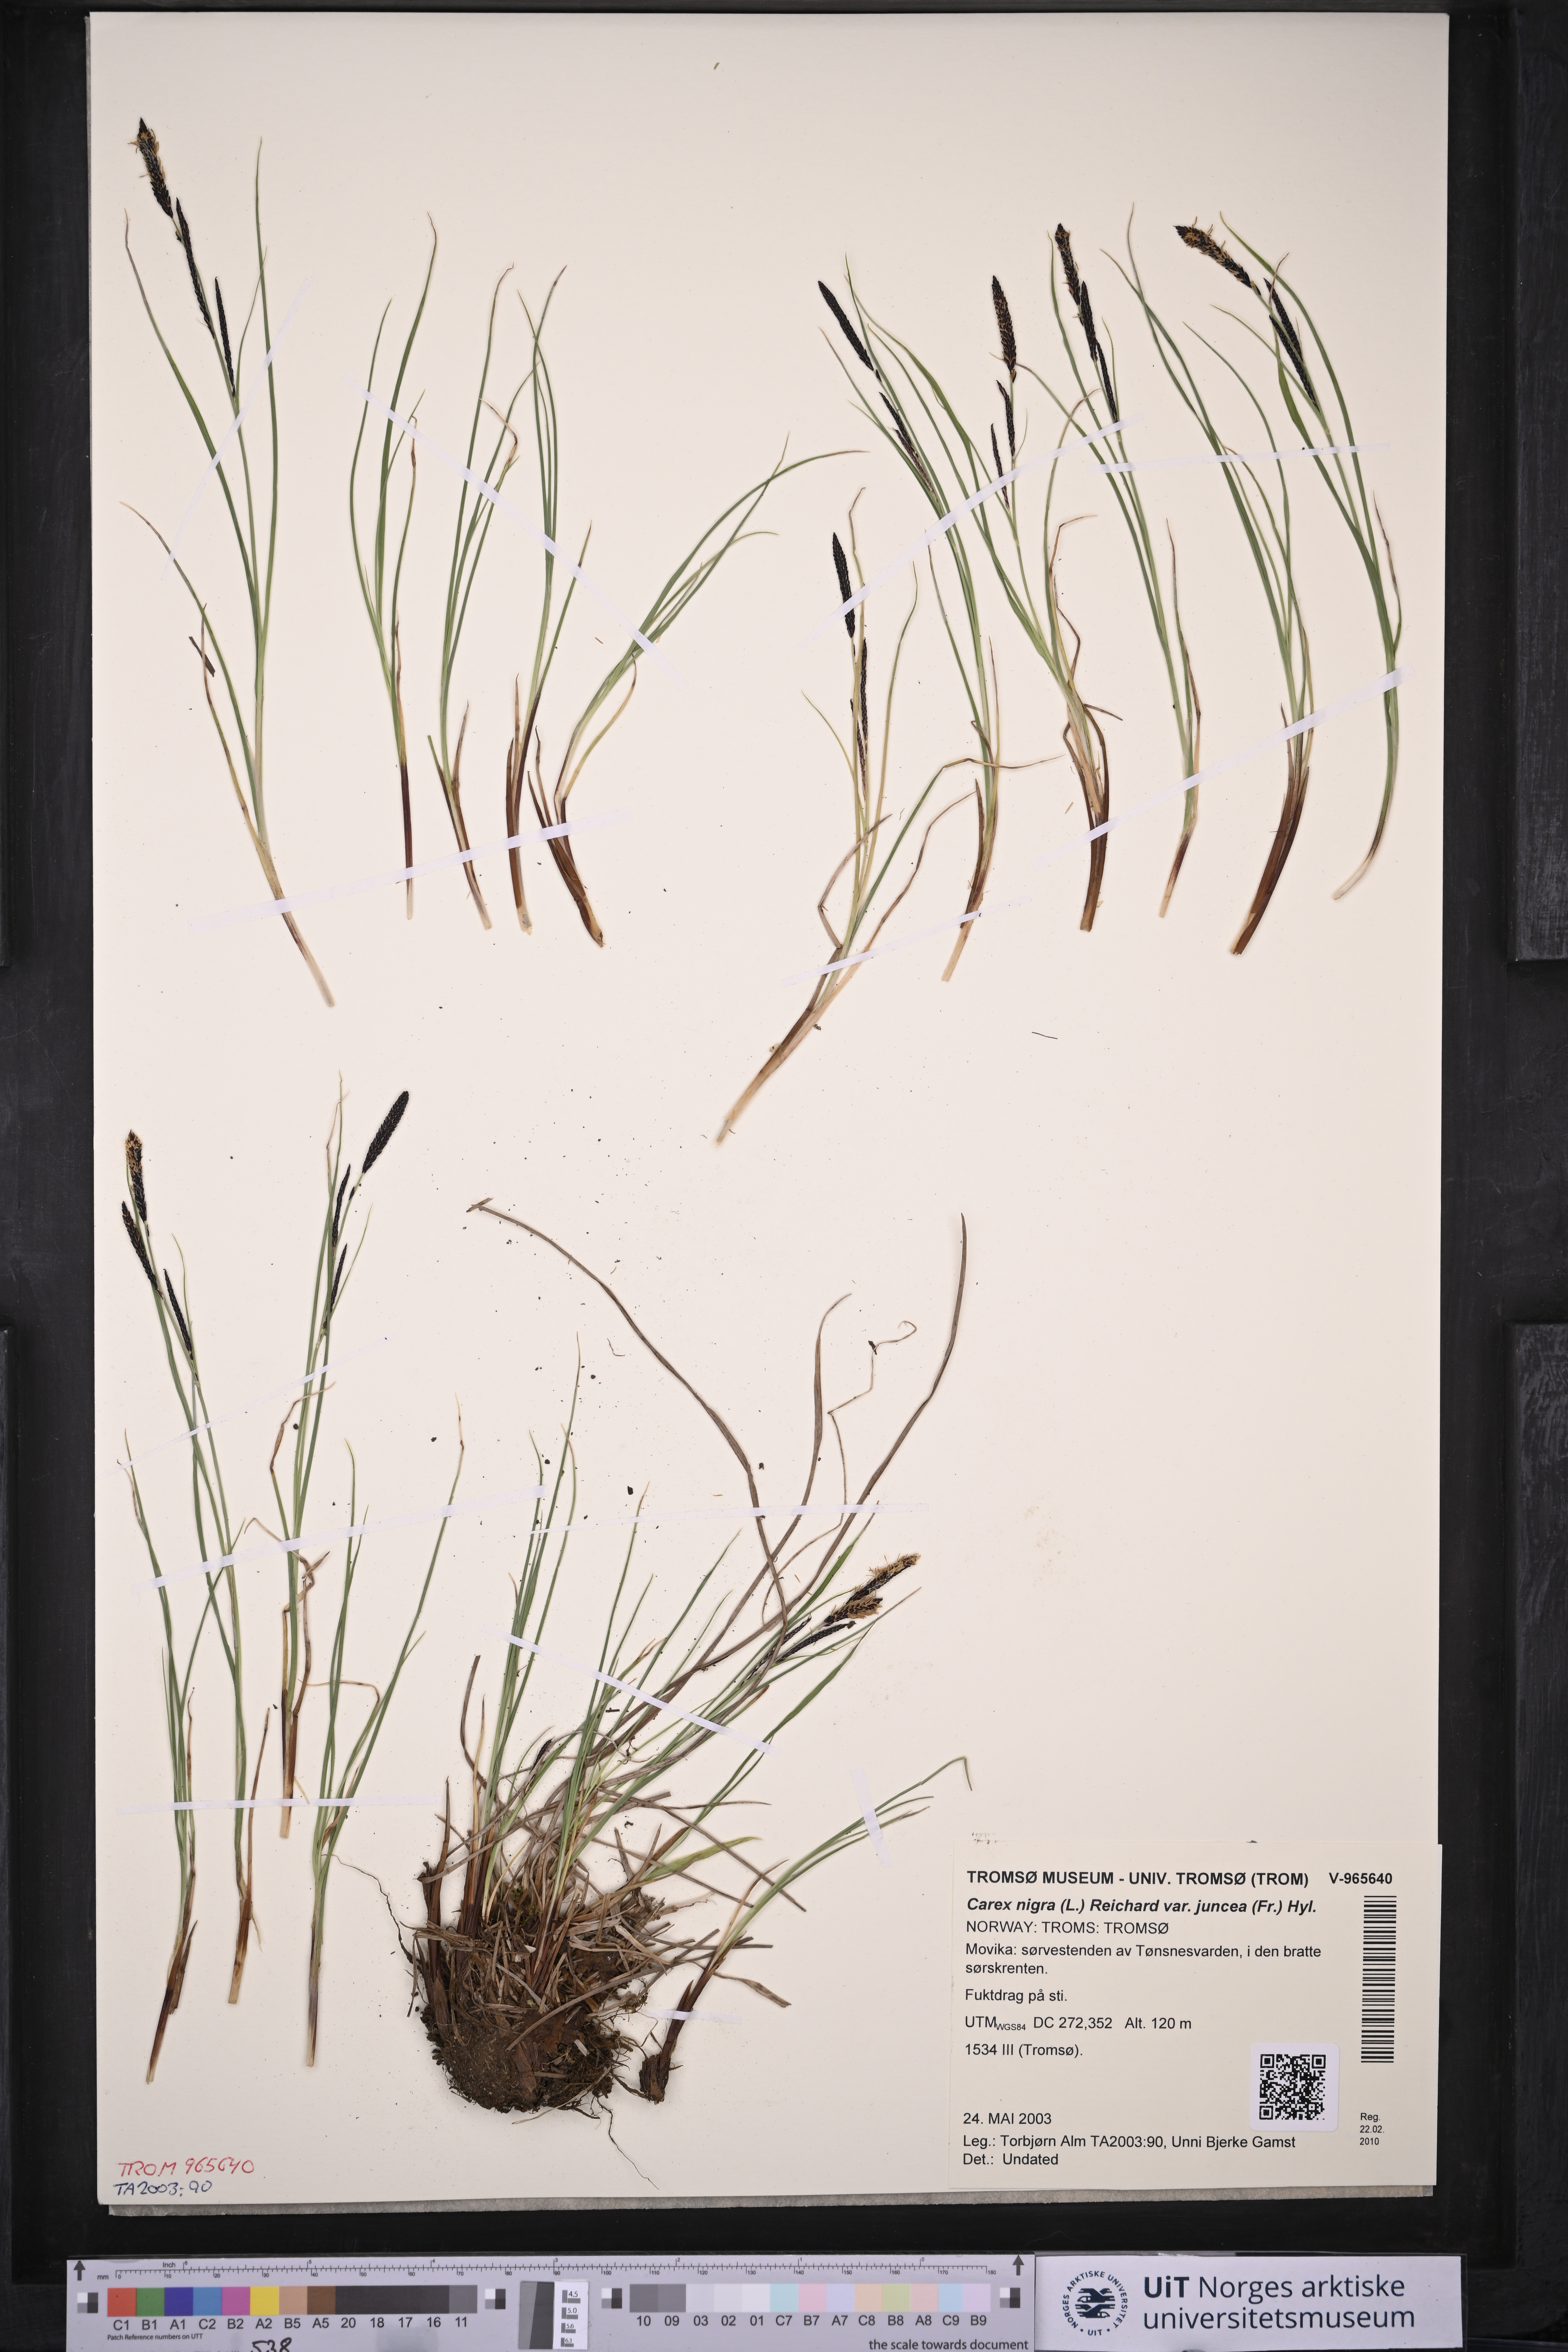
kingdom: Plantae
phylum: Tracheophyta
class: Liliopsida
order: Poales
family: Cyperaceae
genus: Carex
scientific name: Carex nigra
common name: Common sedge
